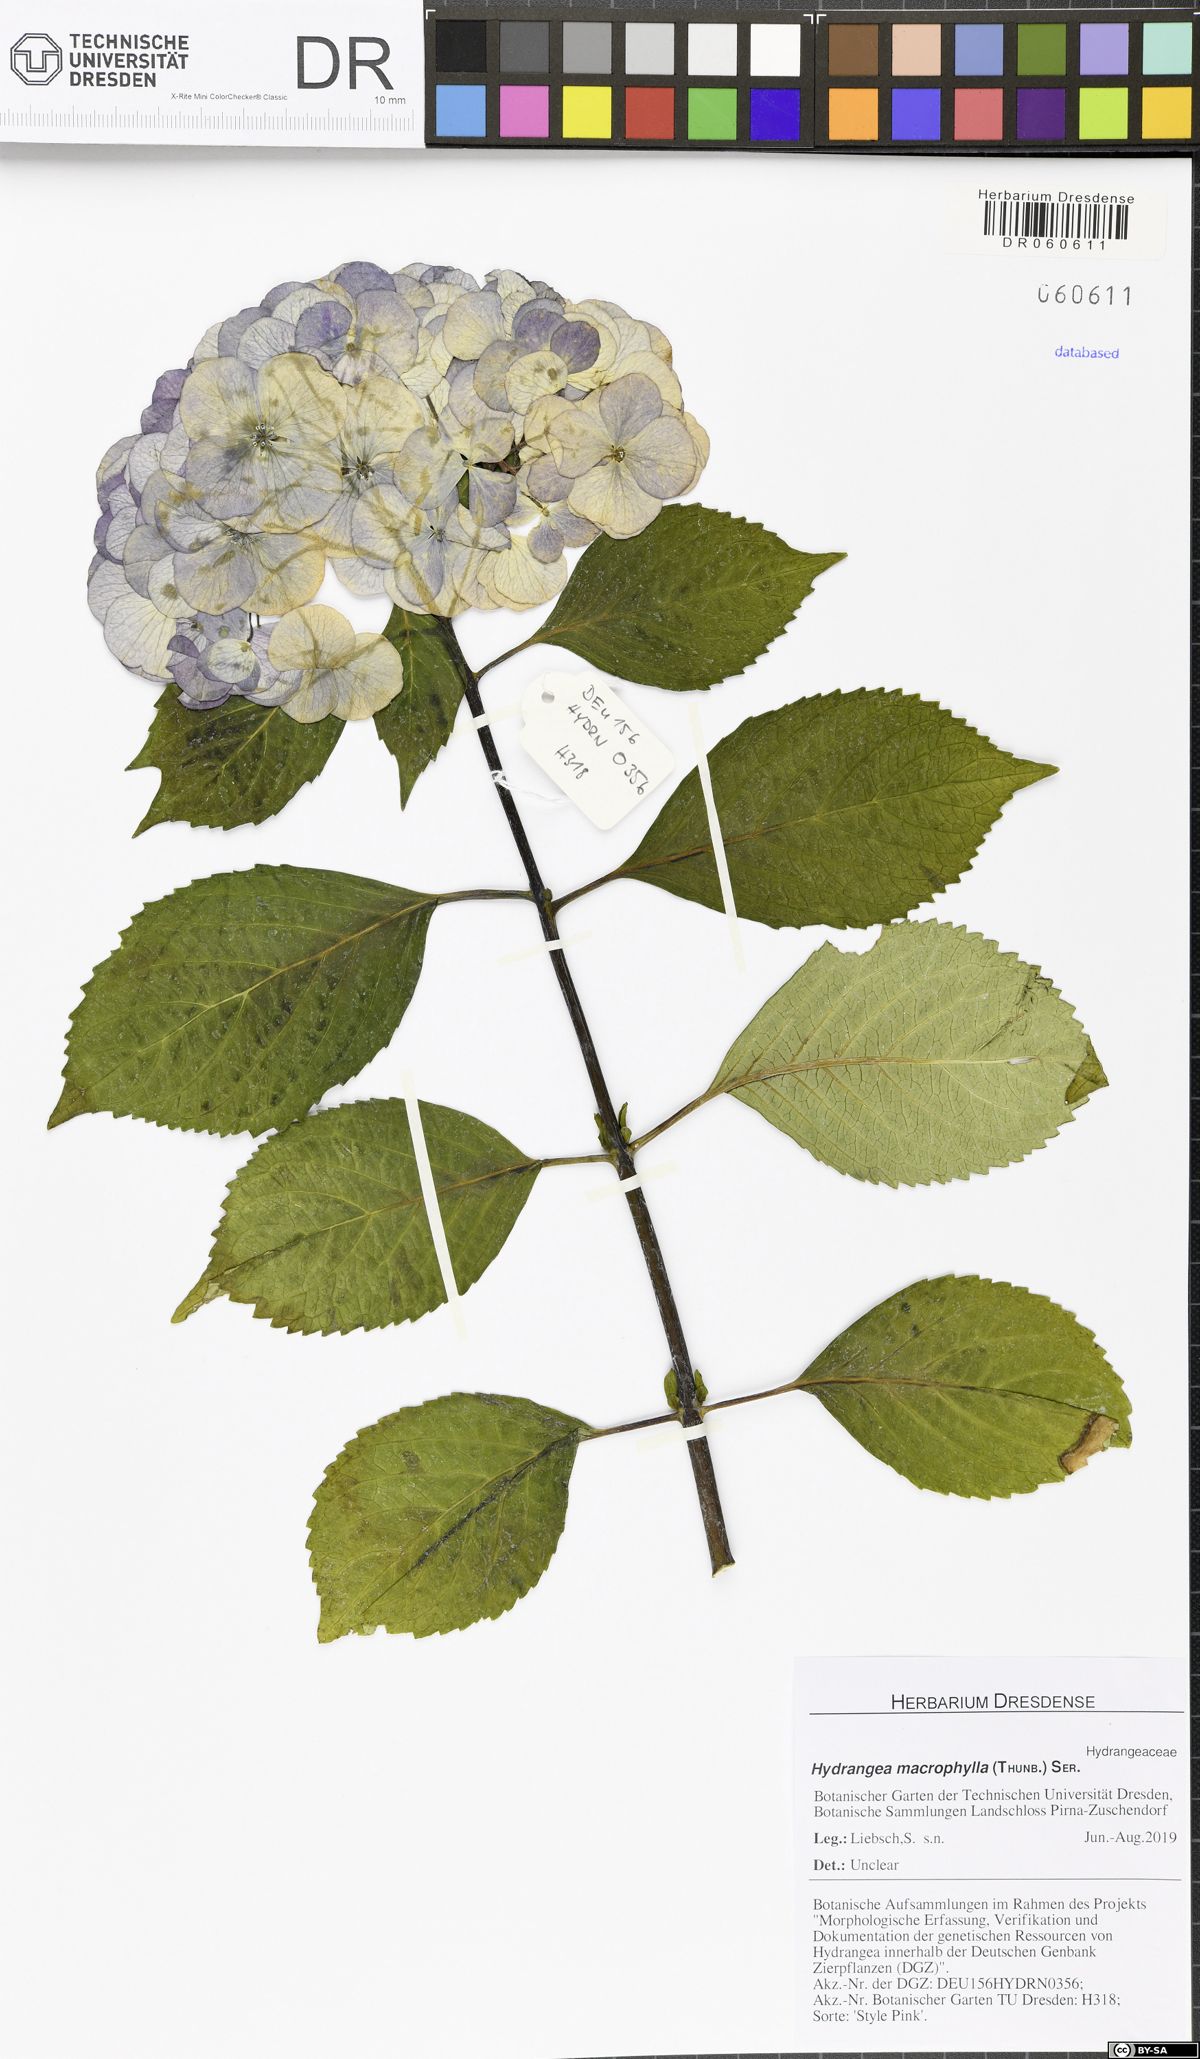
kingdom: Plantae
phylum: Tracheophyta
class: Magnoliopsida
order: Cornales
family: Hydrangeaceae
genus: Hydrangea
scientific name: Hydrangea macrophylla
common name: Hydrangea
